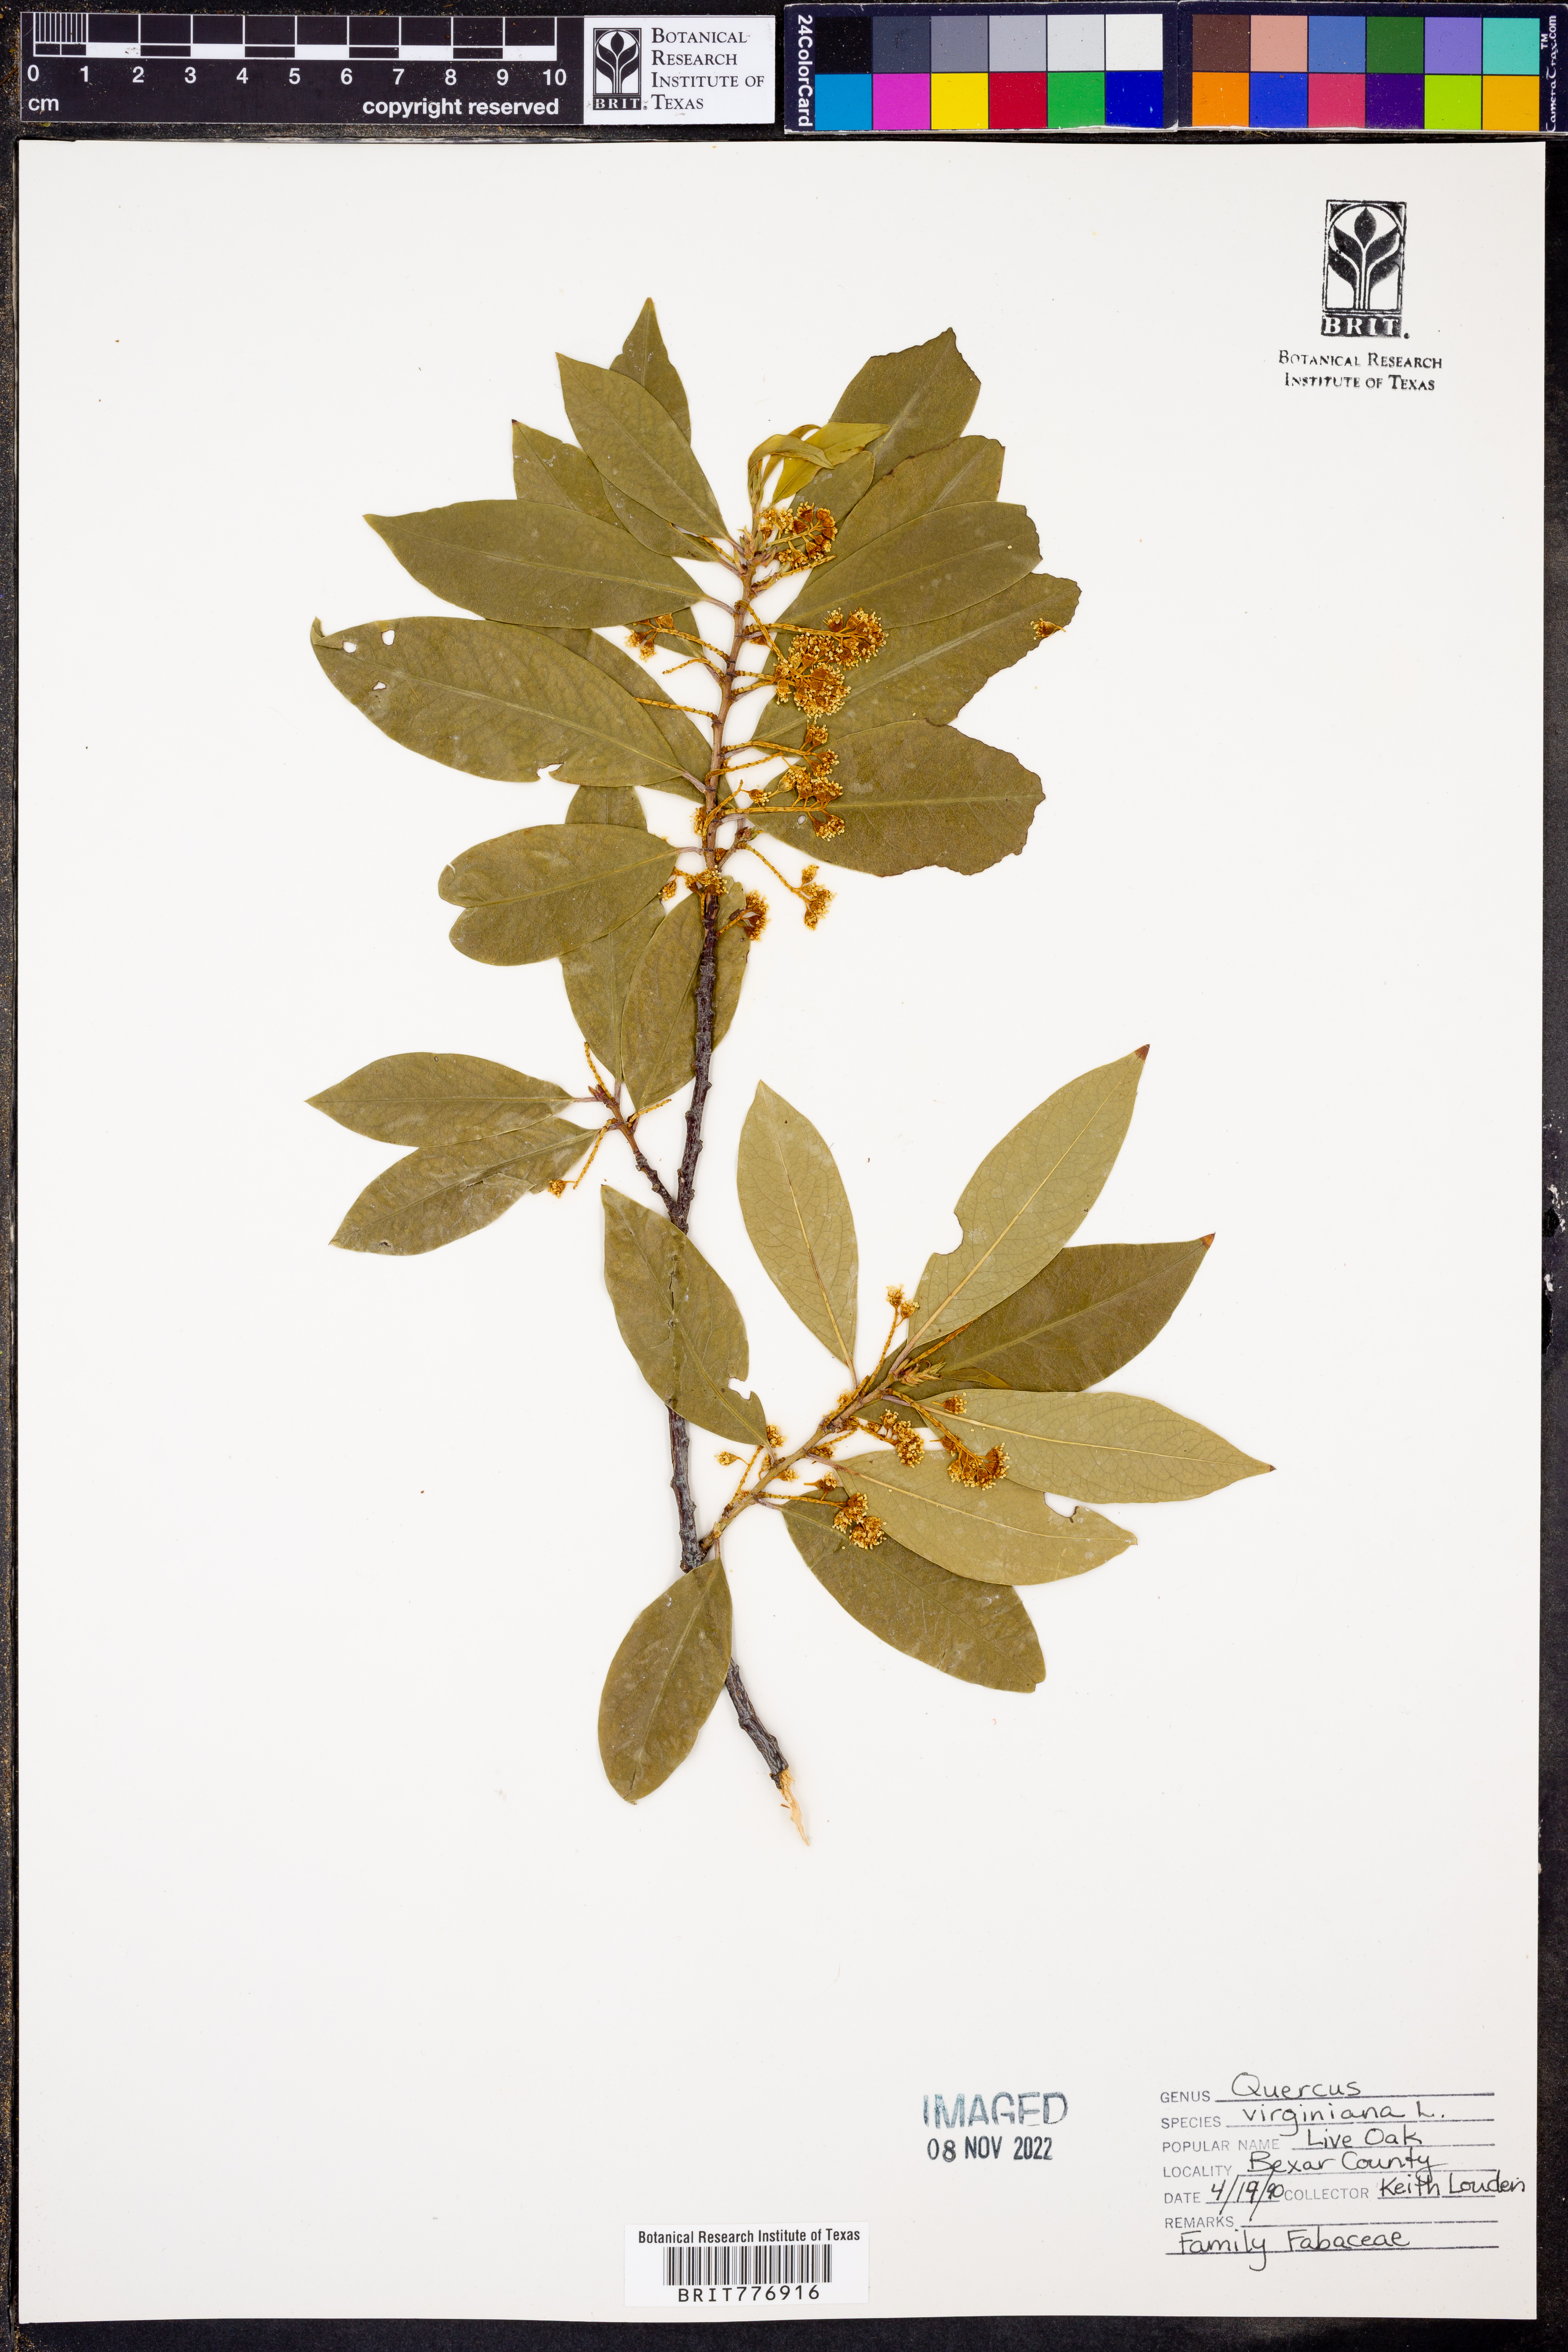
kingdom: Plantae
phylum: Tracheophyta
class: Magnoliopsida
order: Fagales
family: Fagaceae
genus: Quercus
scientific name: Quercus virginiana
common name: Southern live oak
